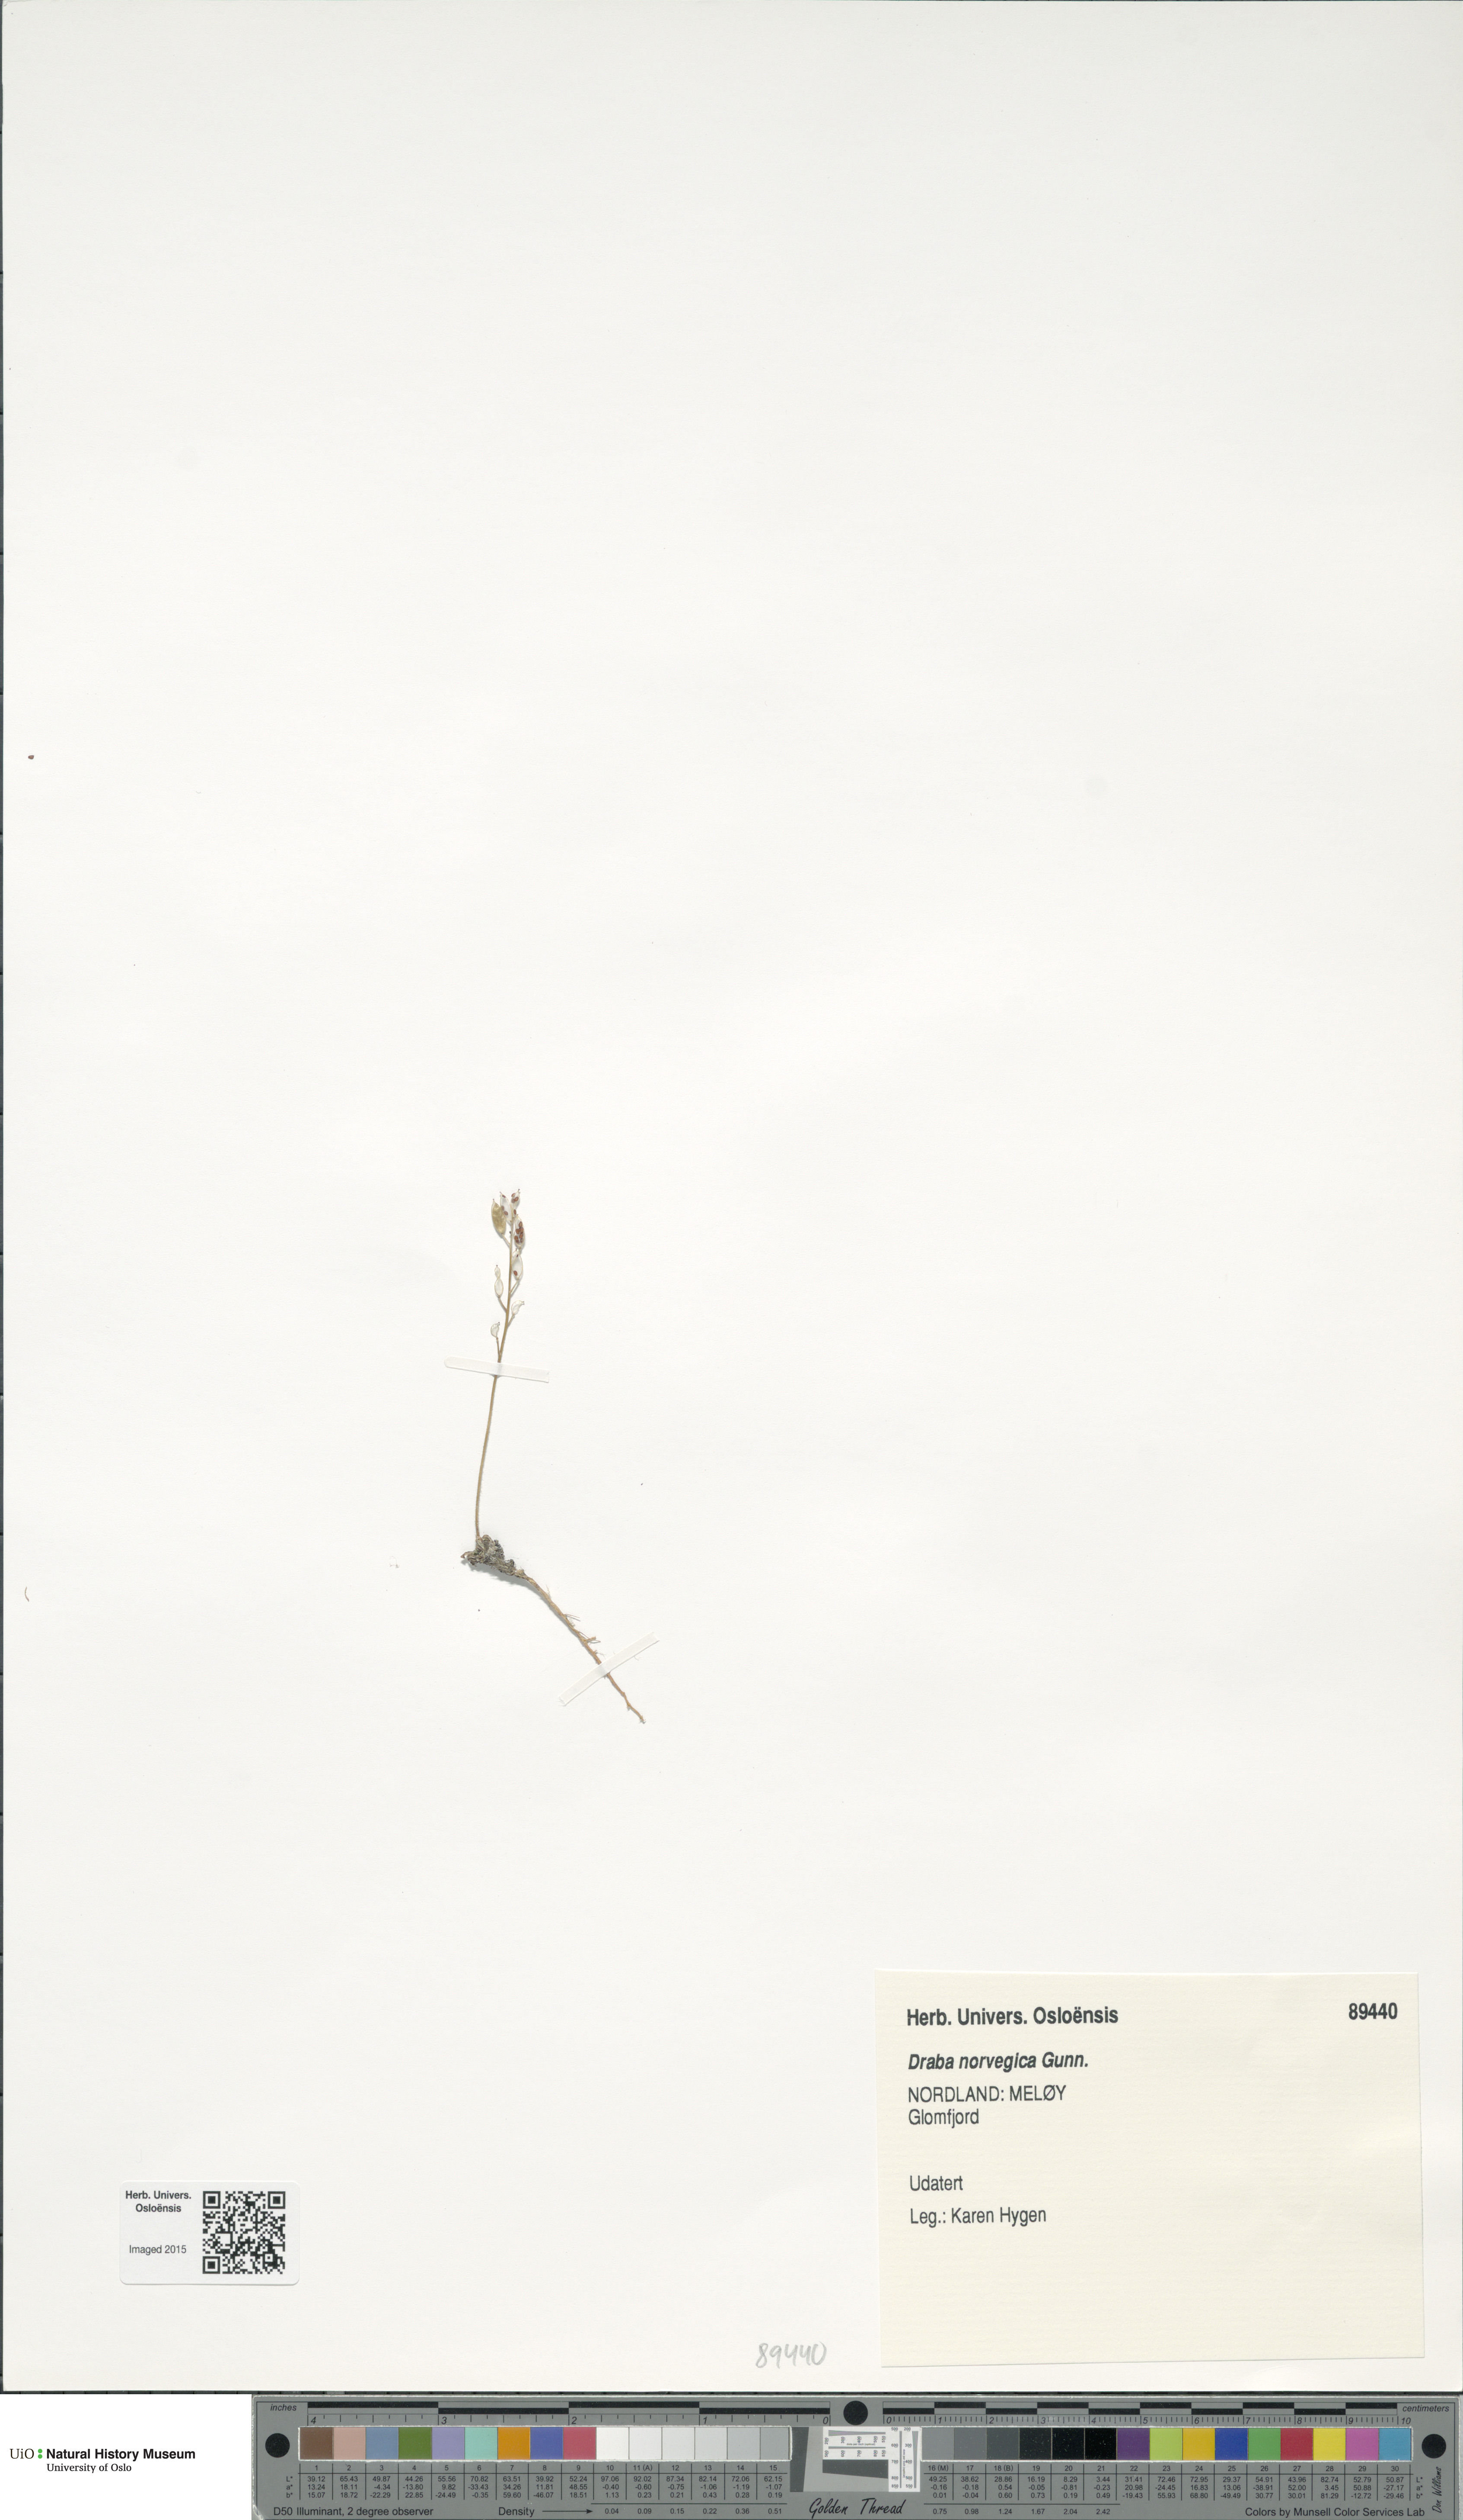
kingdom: Plantae
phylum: Tracheophyta
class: Magnoliopsida
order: Brassicales
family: Brassicaceae
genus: Draba
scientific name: Draba norvegica
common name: Rock whitlowgrass
